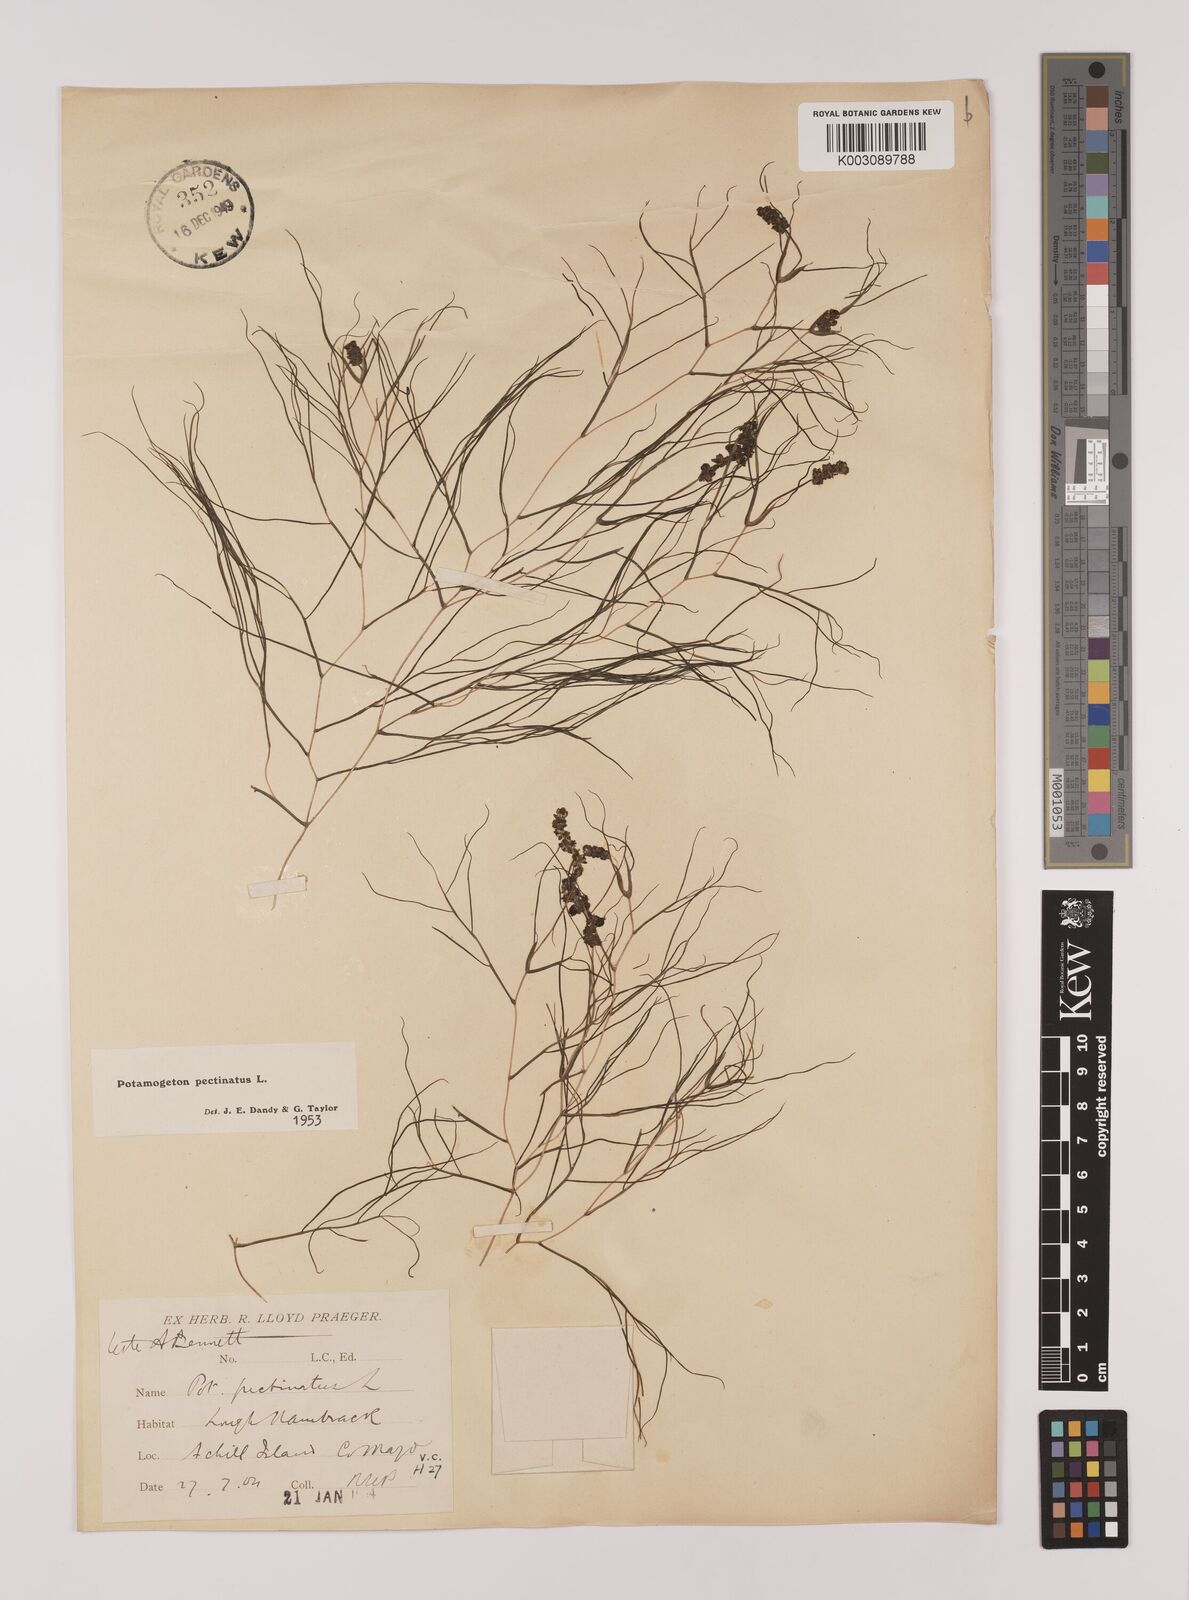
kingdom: Plantae
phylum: Tracheophyta
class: Liliopsida
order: Alismatales
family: Potamogetonaceae
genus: Stuckenia
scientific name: Stuckenia pectinata
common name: Sago pondweed
